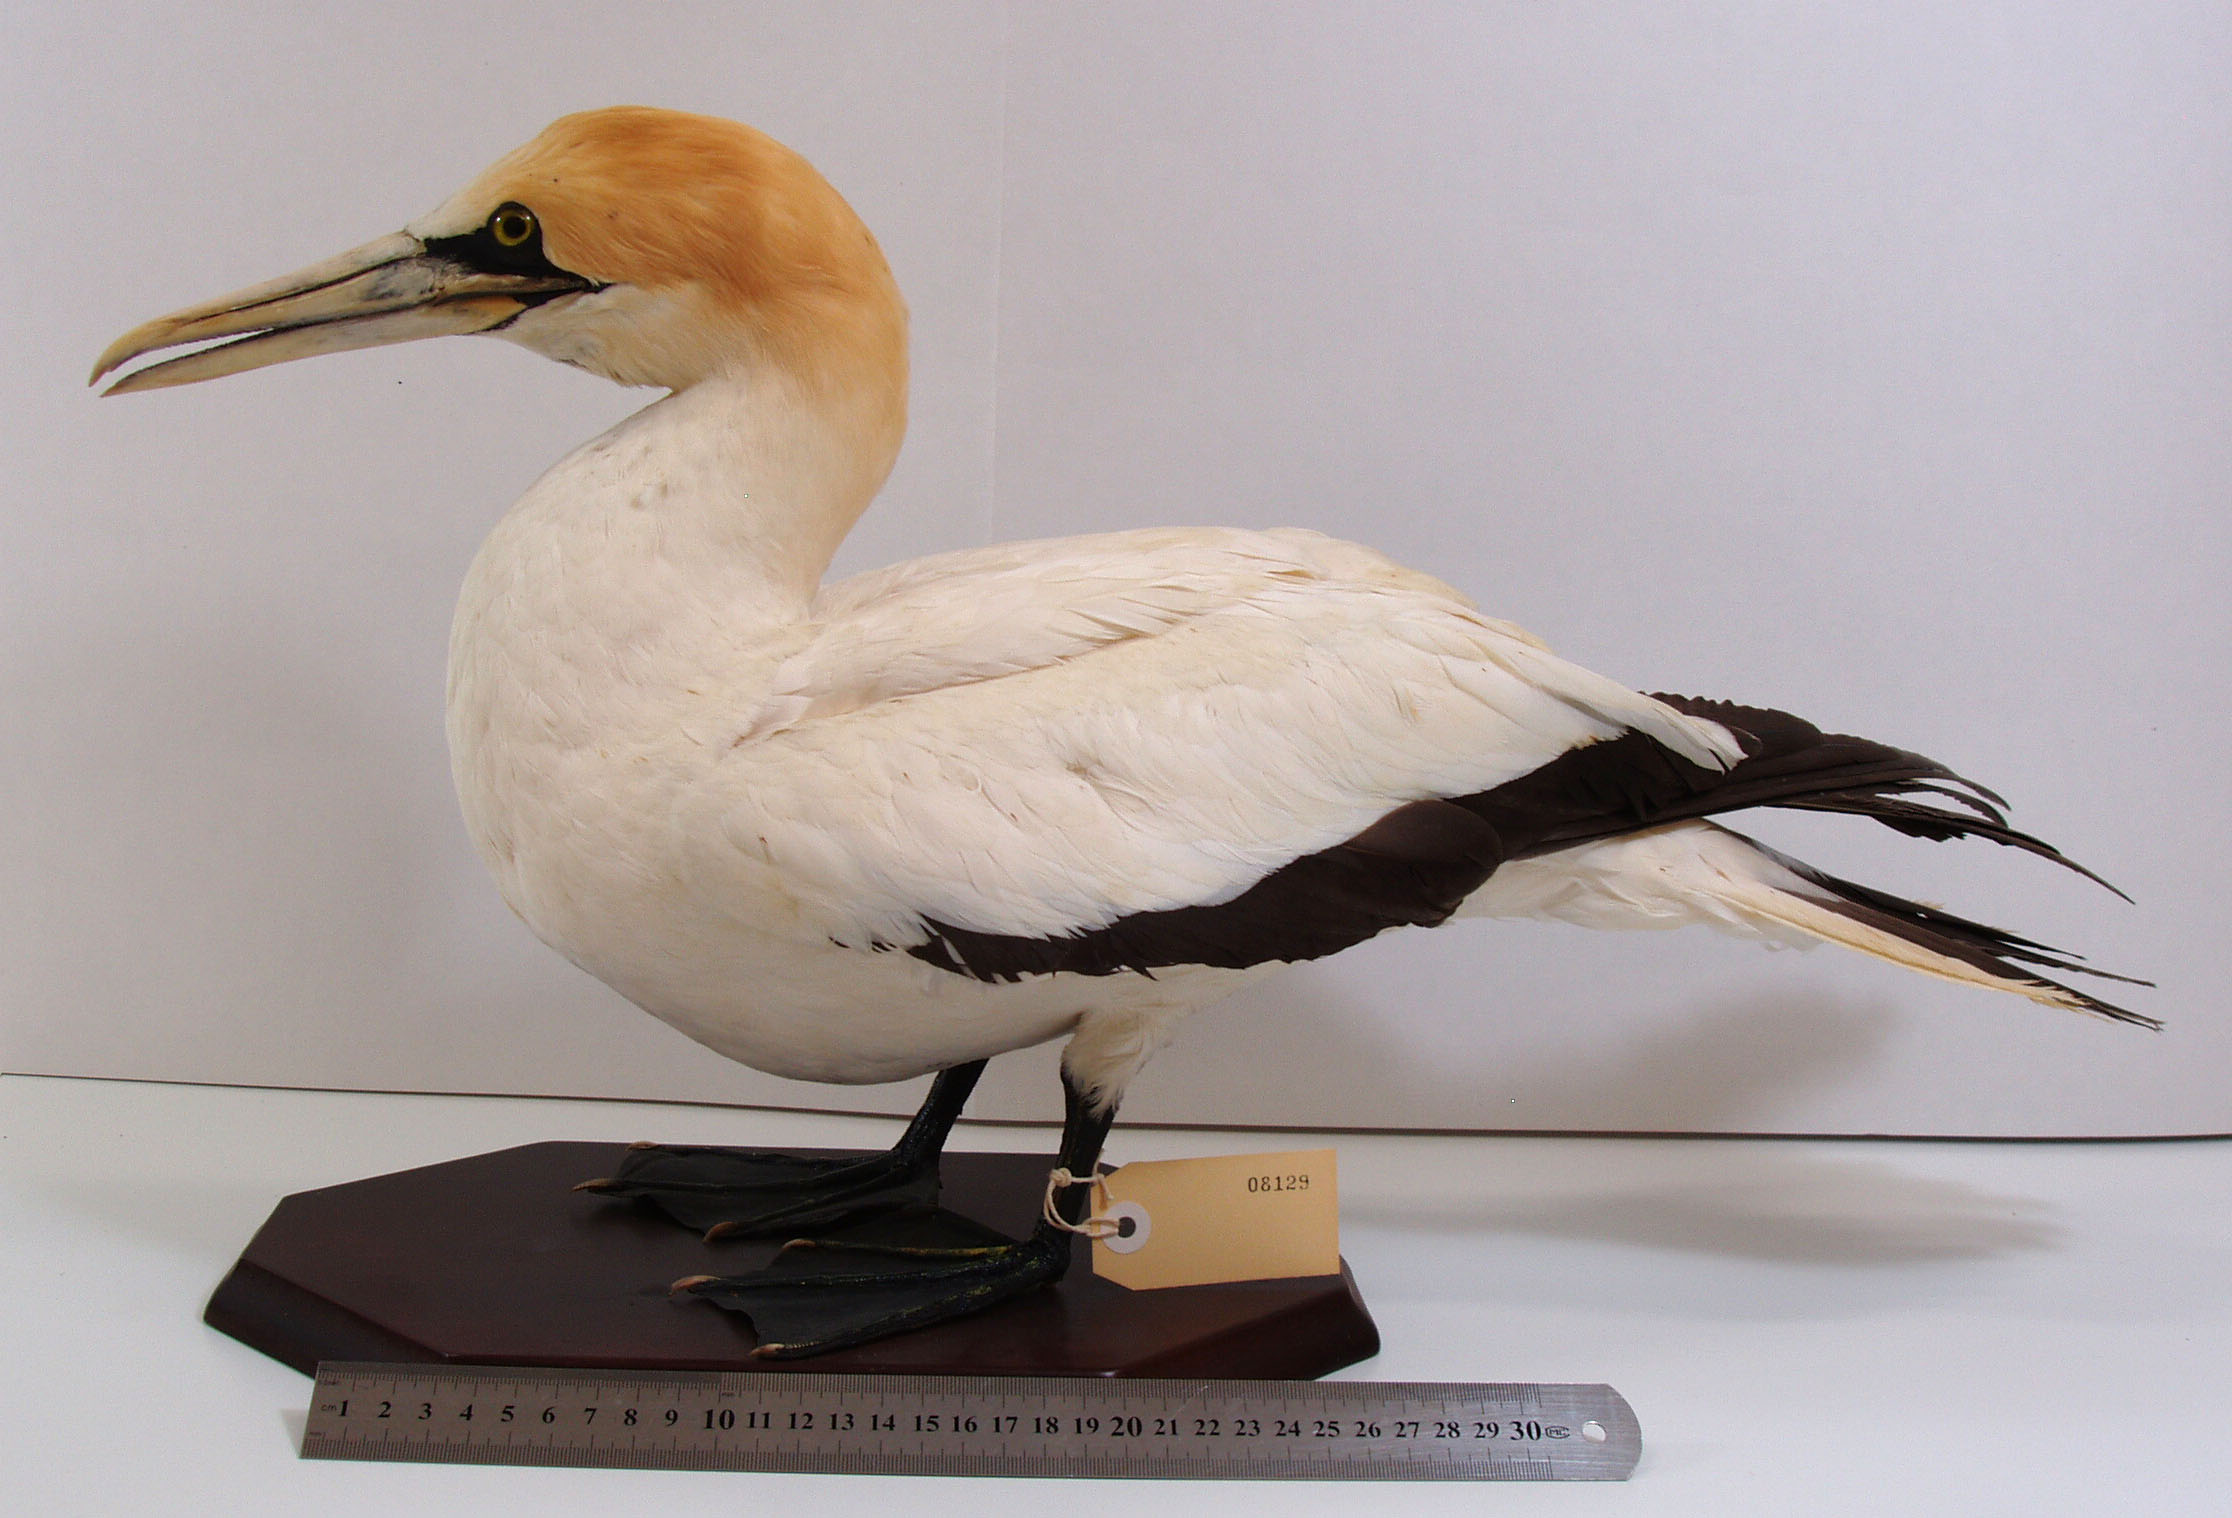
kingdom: Animalia
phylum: Chordata
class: Aves
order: Suliformes
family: Sulidae
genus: Morus
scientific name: Morus serrator
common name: Australasian gannet
